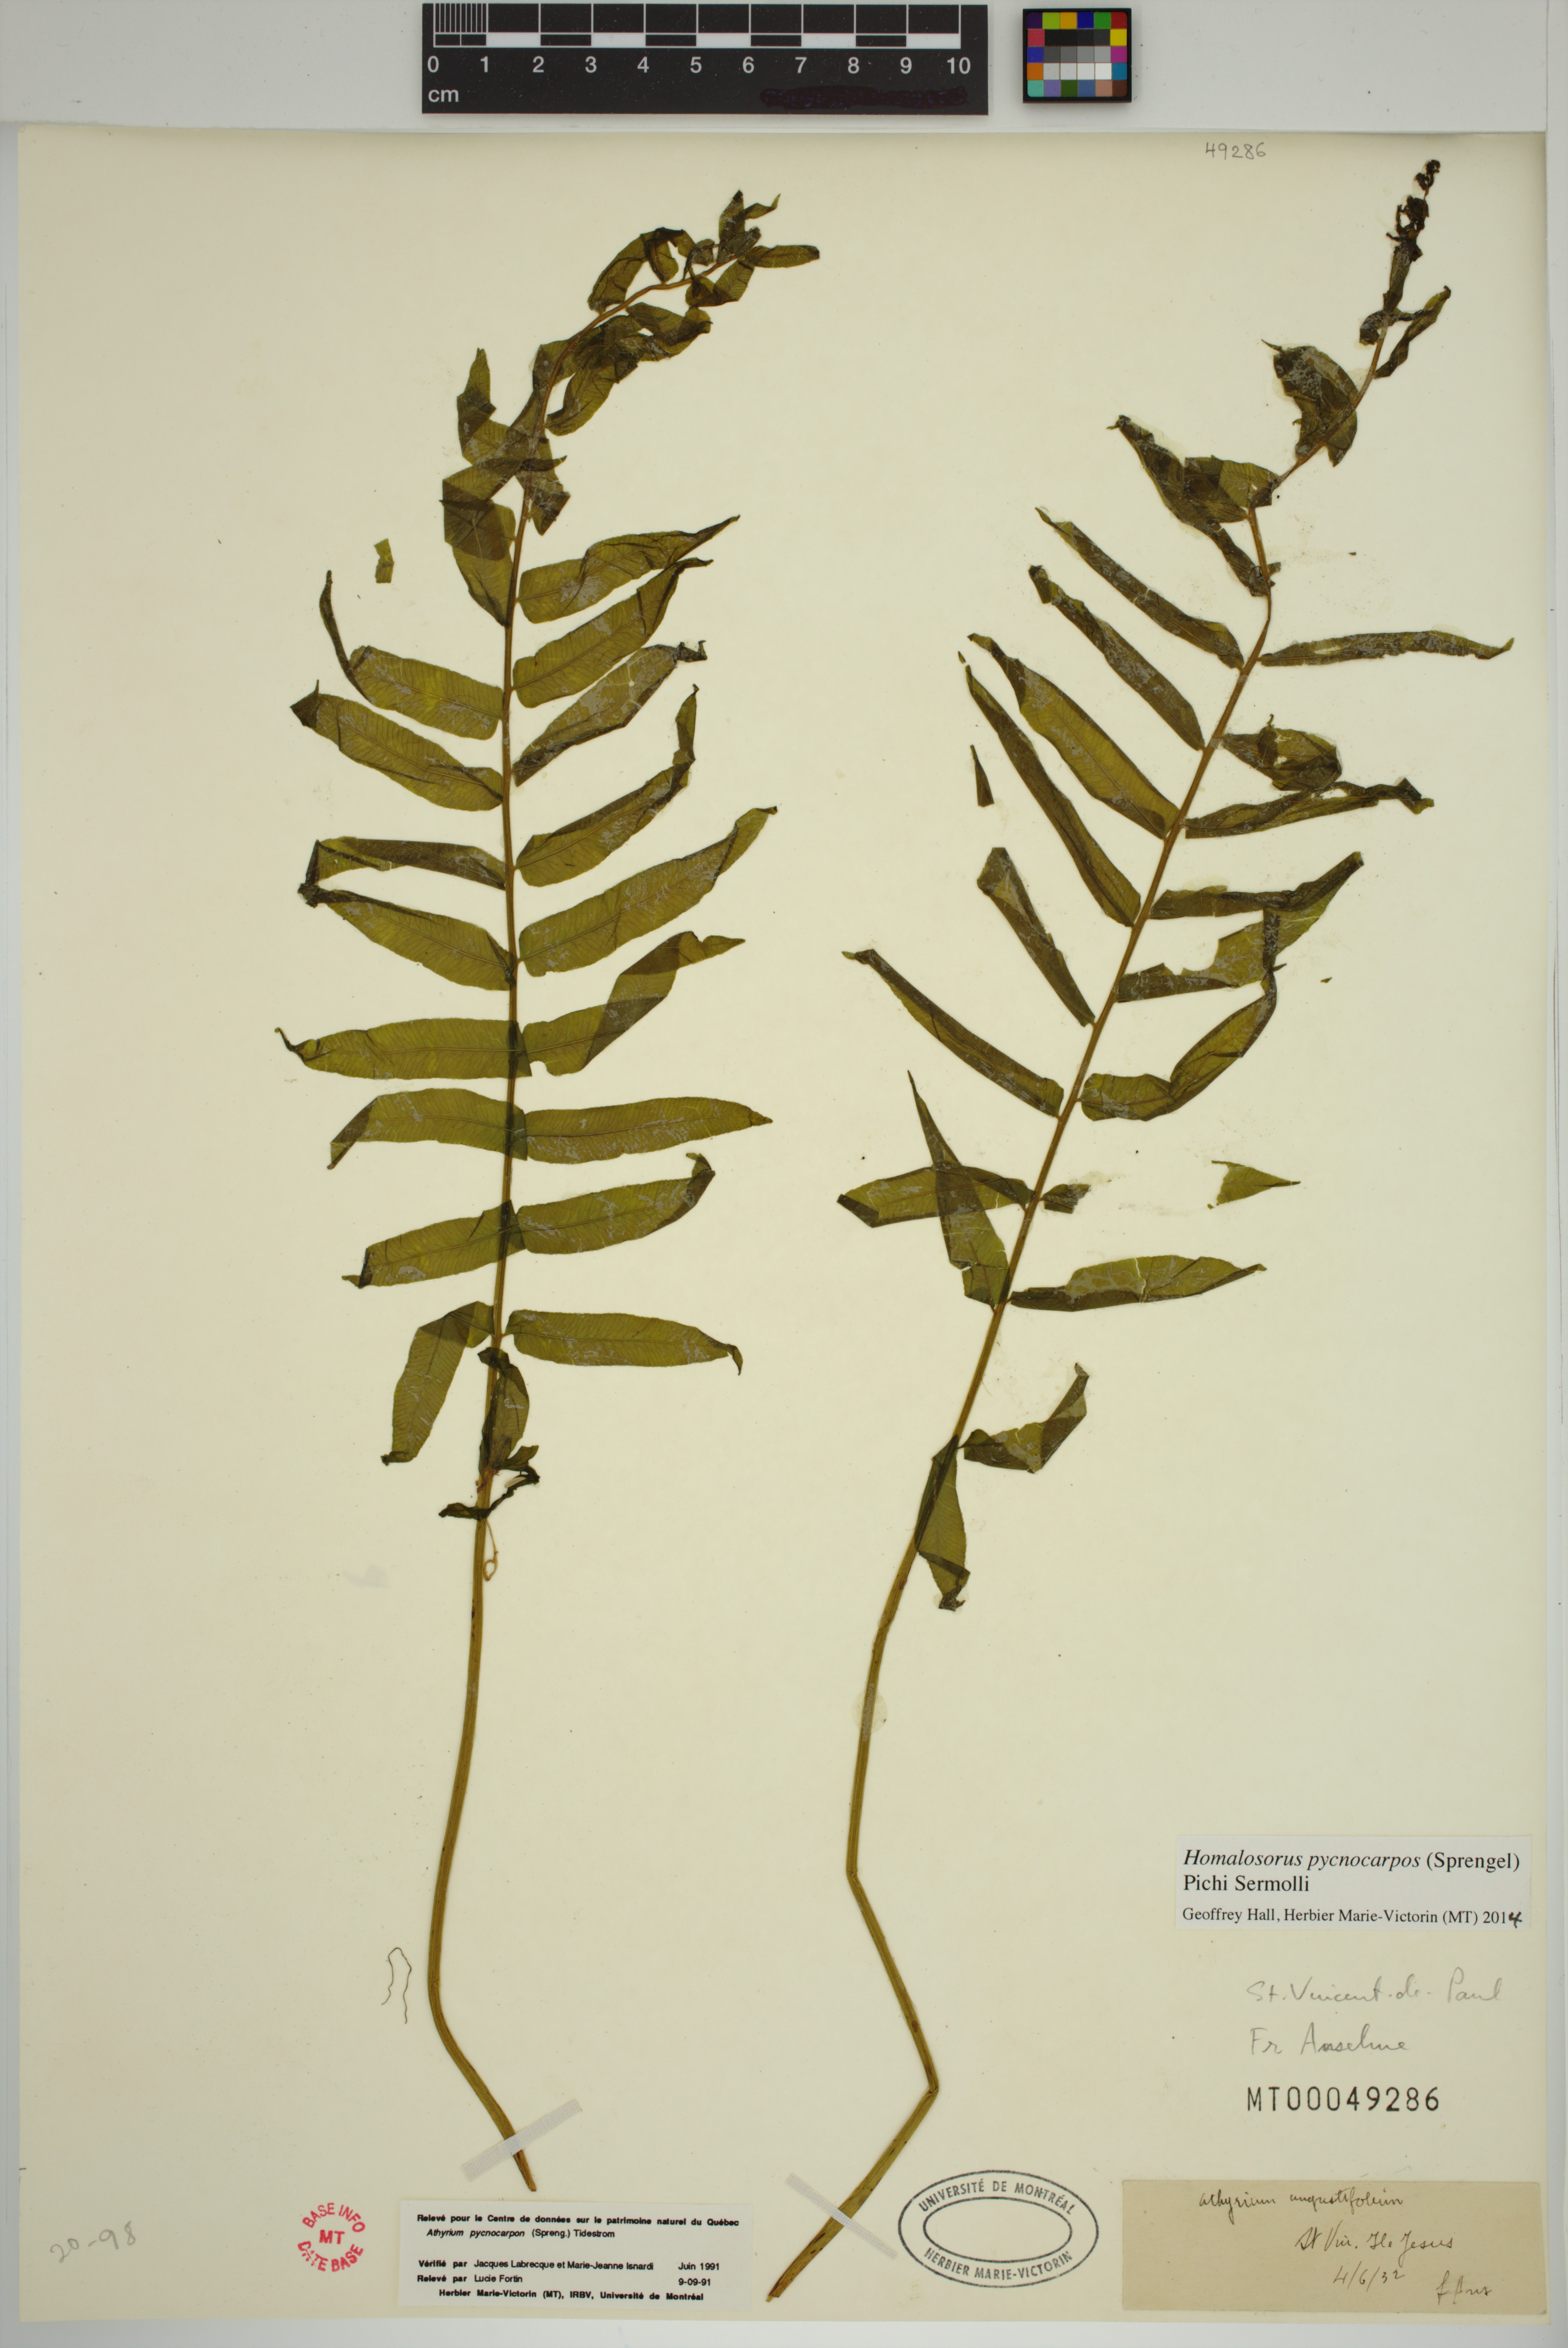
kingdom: Plantae
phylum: Tracheophyta
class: Polypodiopsida
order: Polypodiales
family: Diplaziopsidaceae
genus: Homalosorus
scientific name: Homalosorus pycnocarpos
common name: Glade fern
